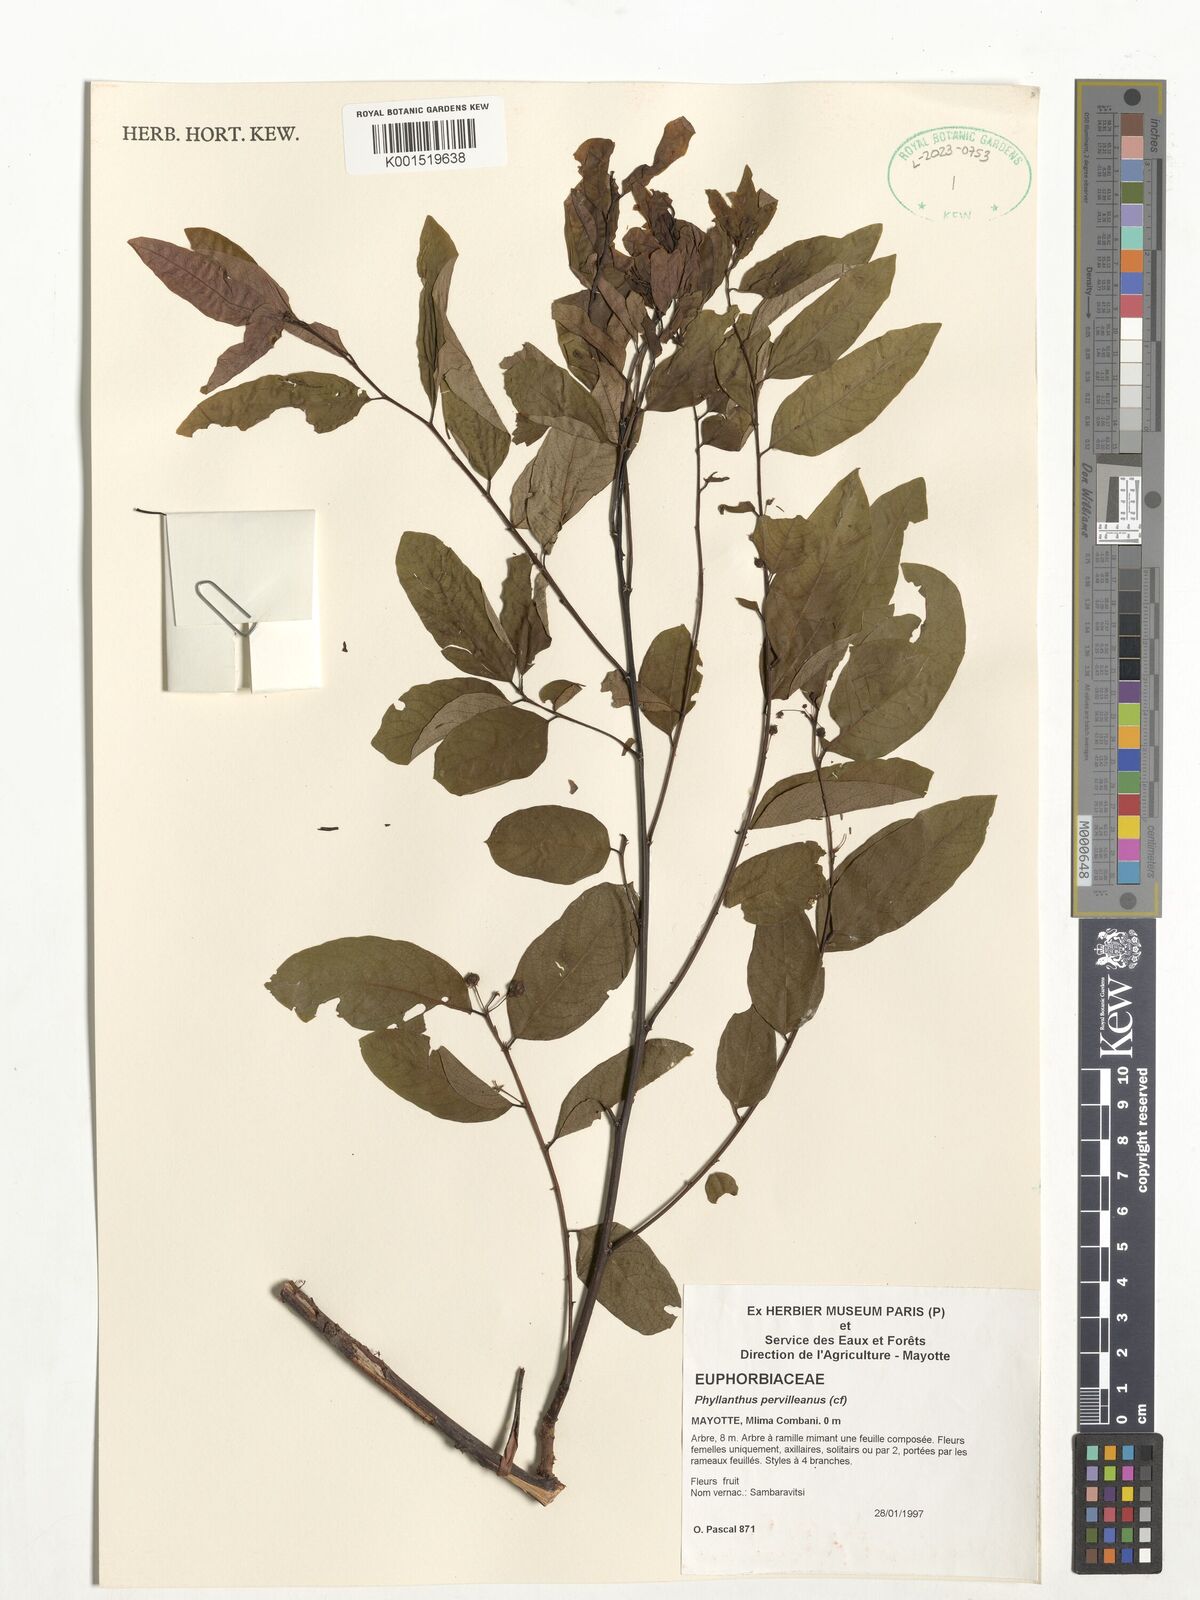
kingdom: Plantae
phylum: Tracheophyta
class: Magnoliopsida
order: Malpighiales
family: Phyllanthaceae
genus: Phyllanthus
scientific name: Phyllanthus pervilleanus
